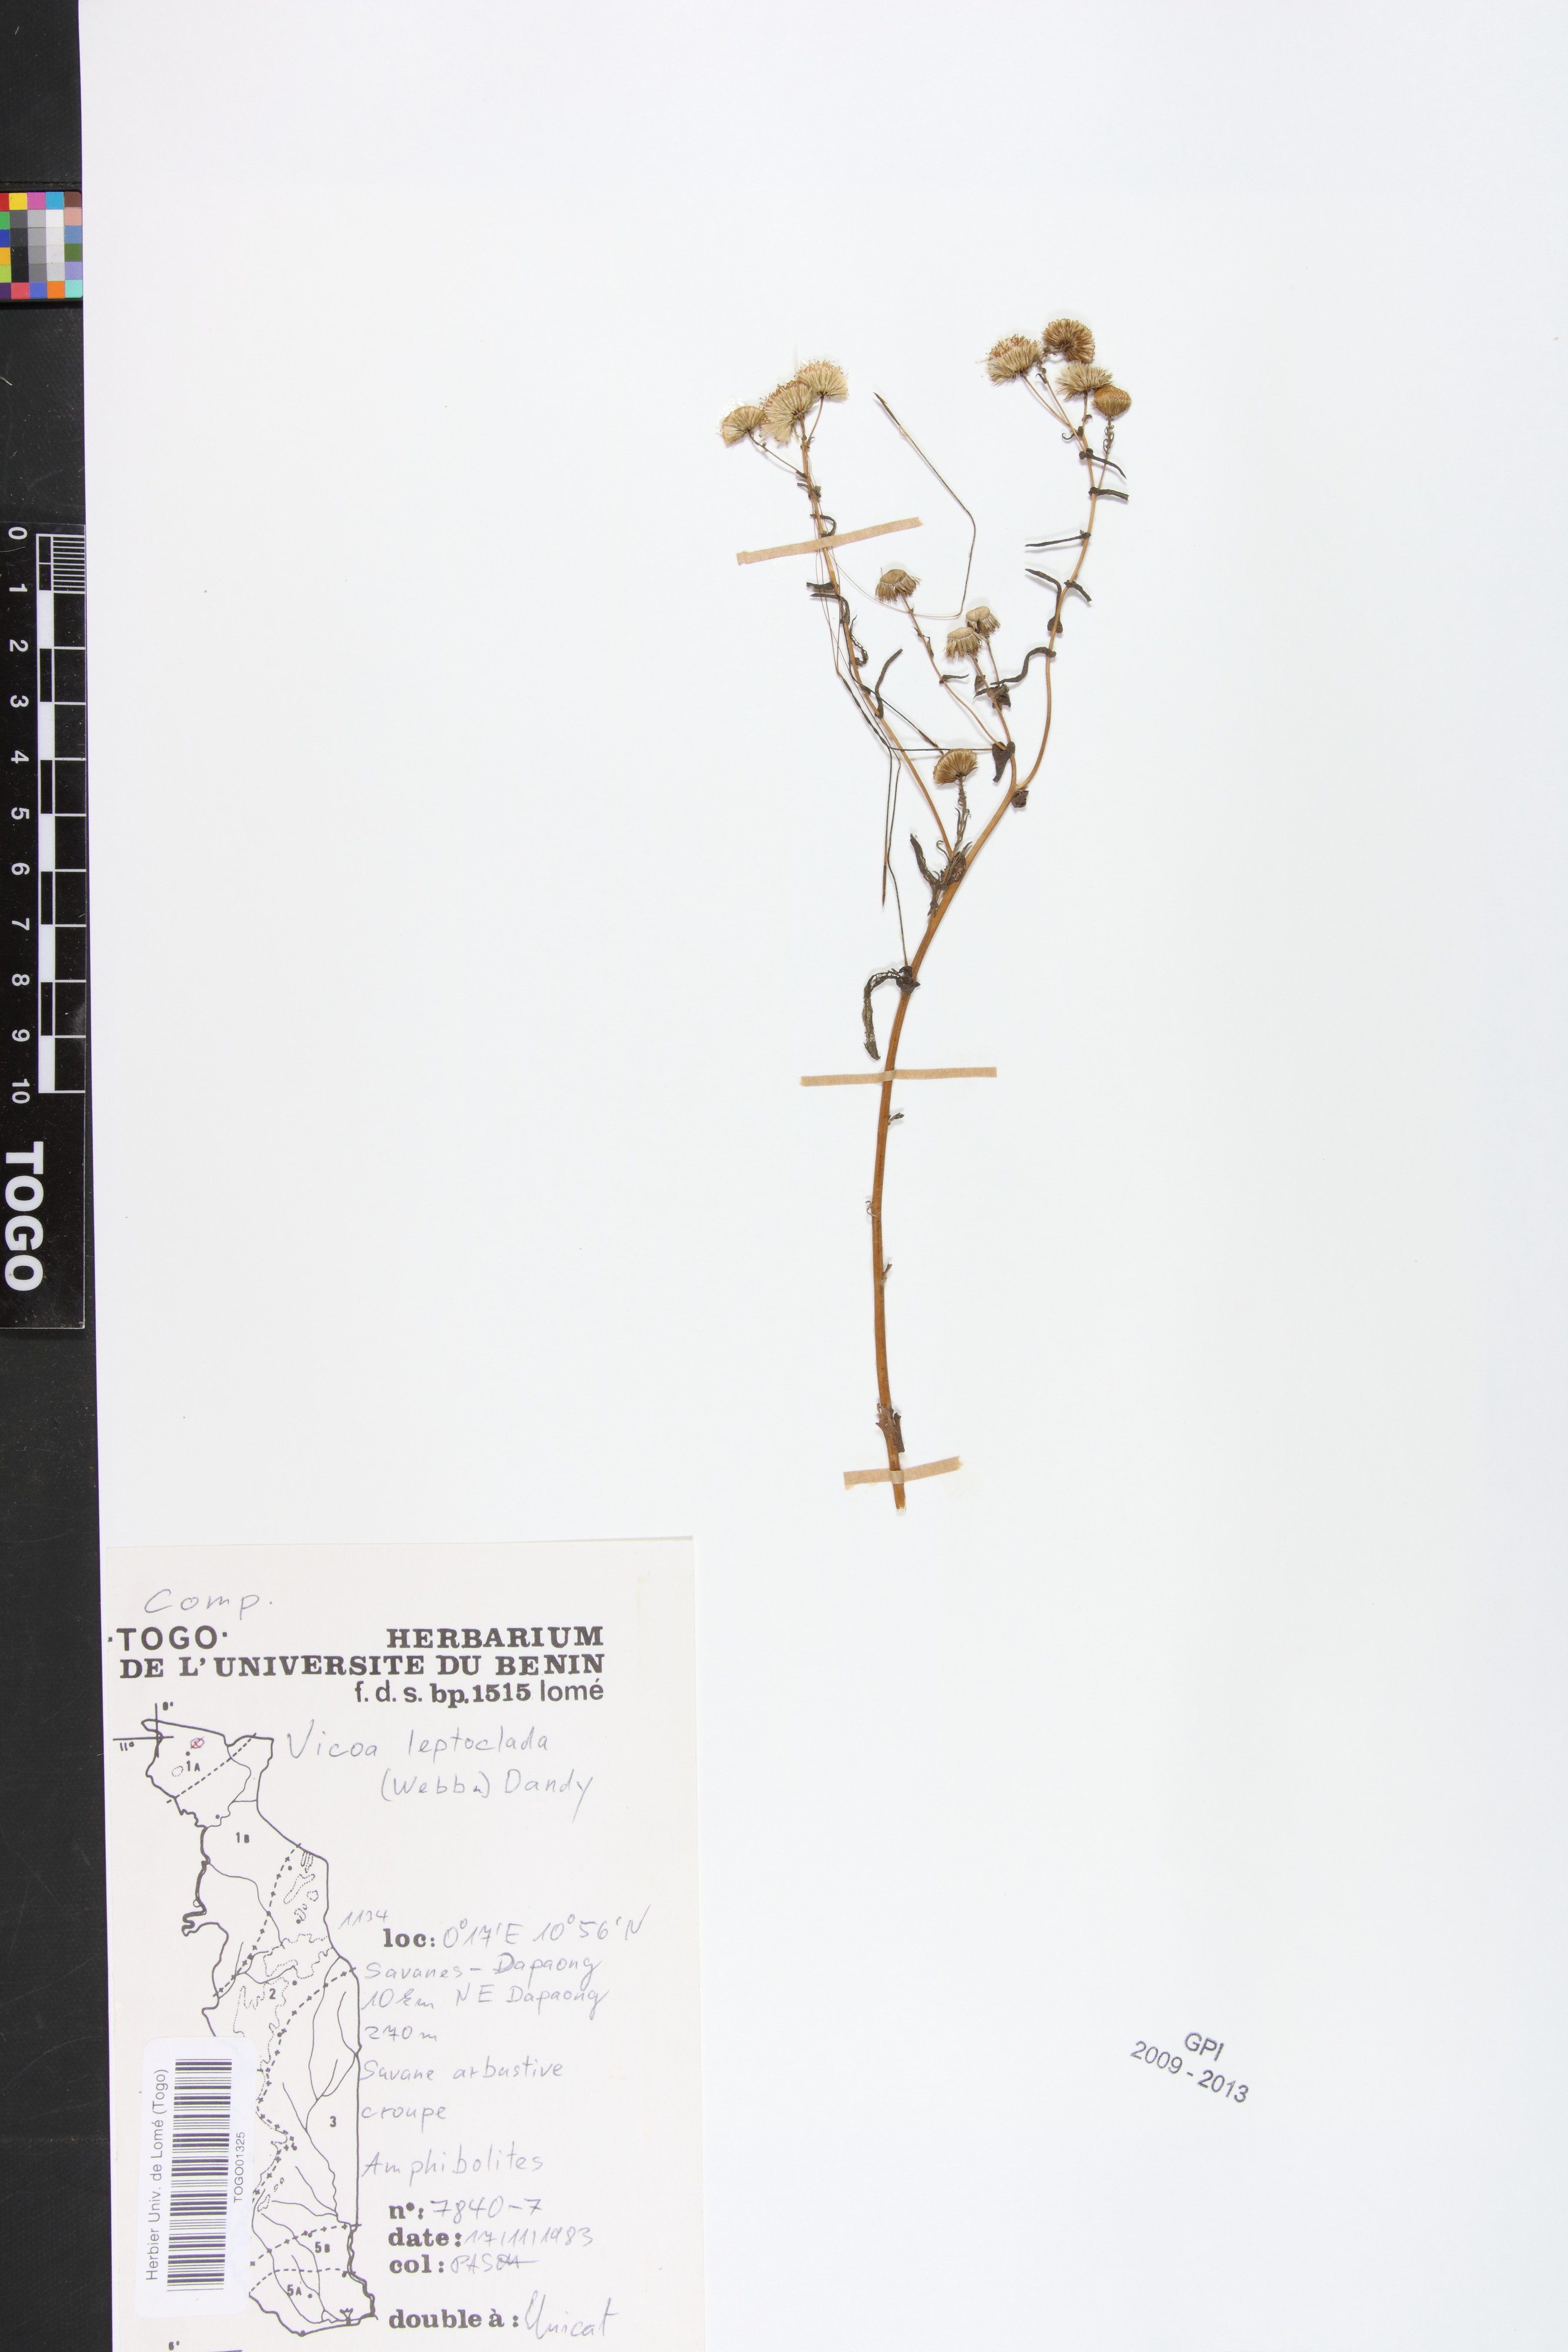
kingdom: Plantae
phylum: Tracheophyta
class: Magnoliopsida
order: Asterales
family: Asteraceae
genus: Vicoa
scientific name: Vicoa indica
